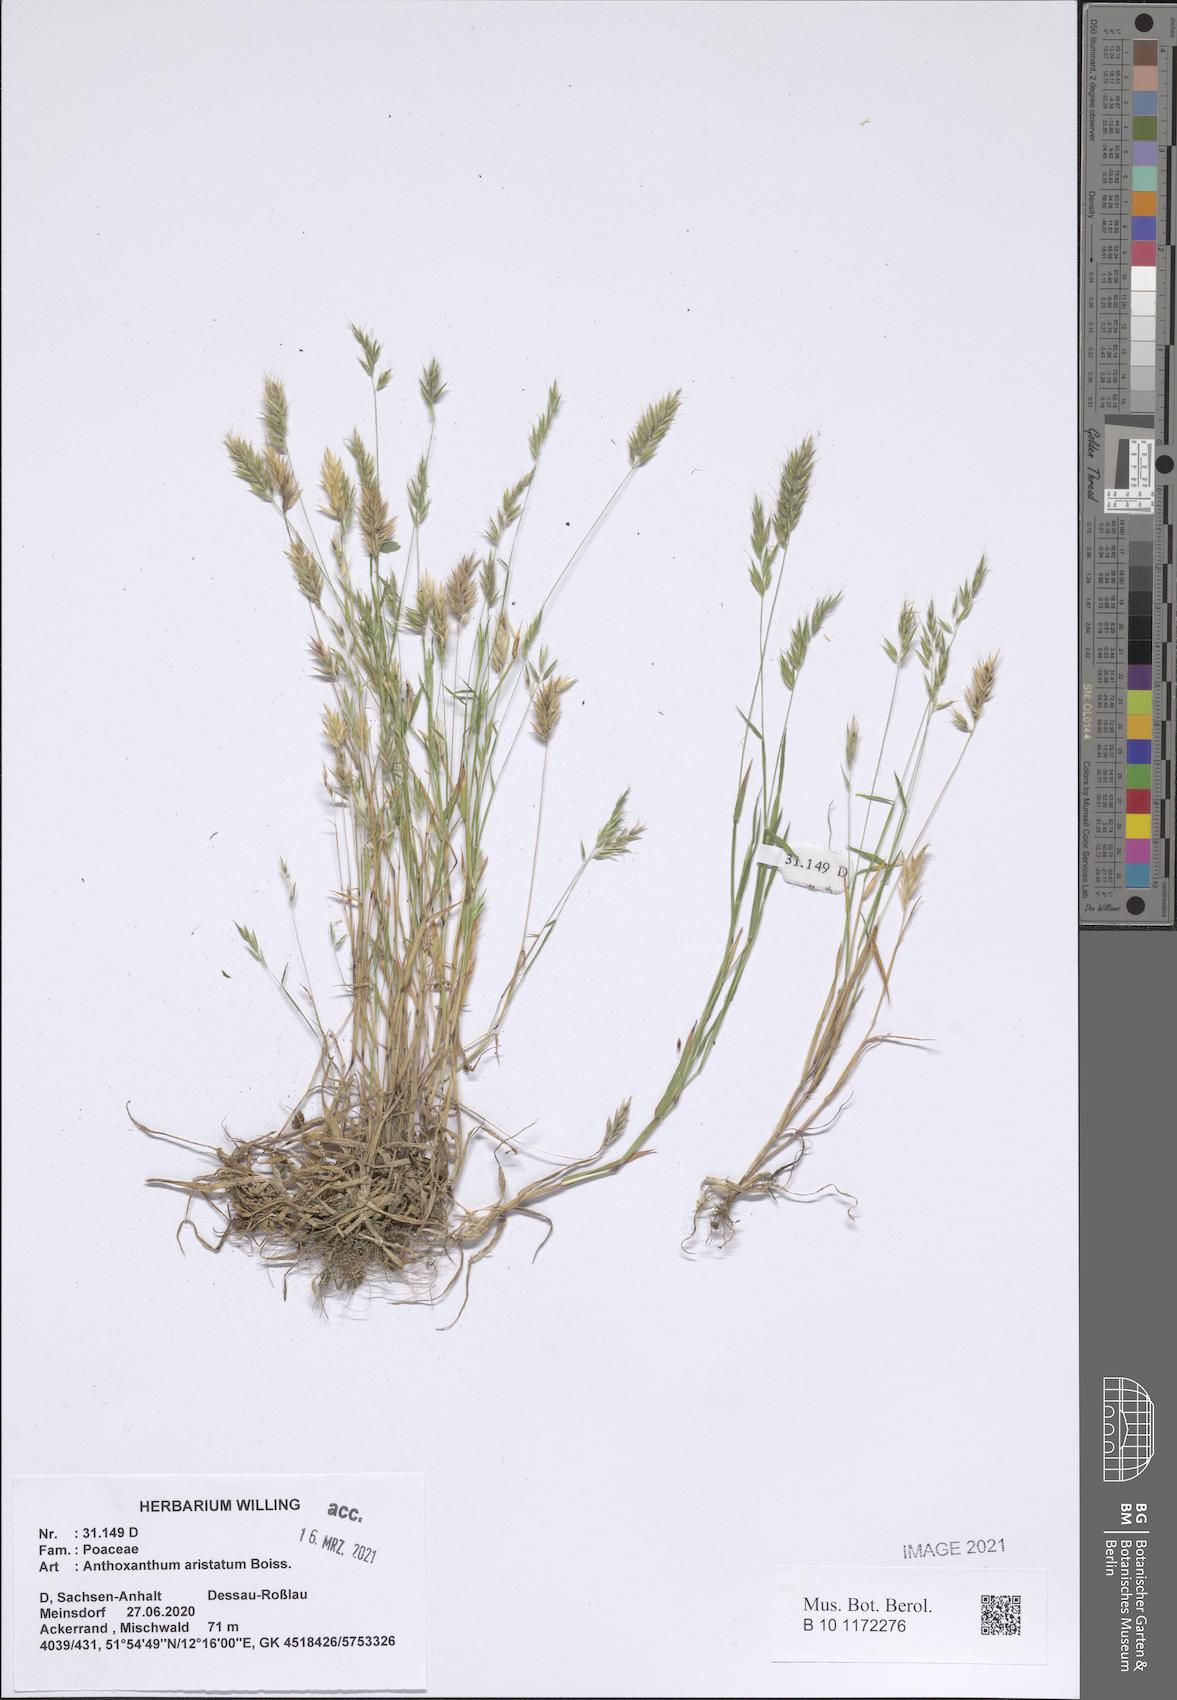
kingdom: Plantae
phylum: Tracheophyta
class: Liliopsida
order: Poales
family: Poaceae
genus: Anthoxanthum
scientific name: Anthoxanthum aristatum
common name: Annual vernal-grass
